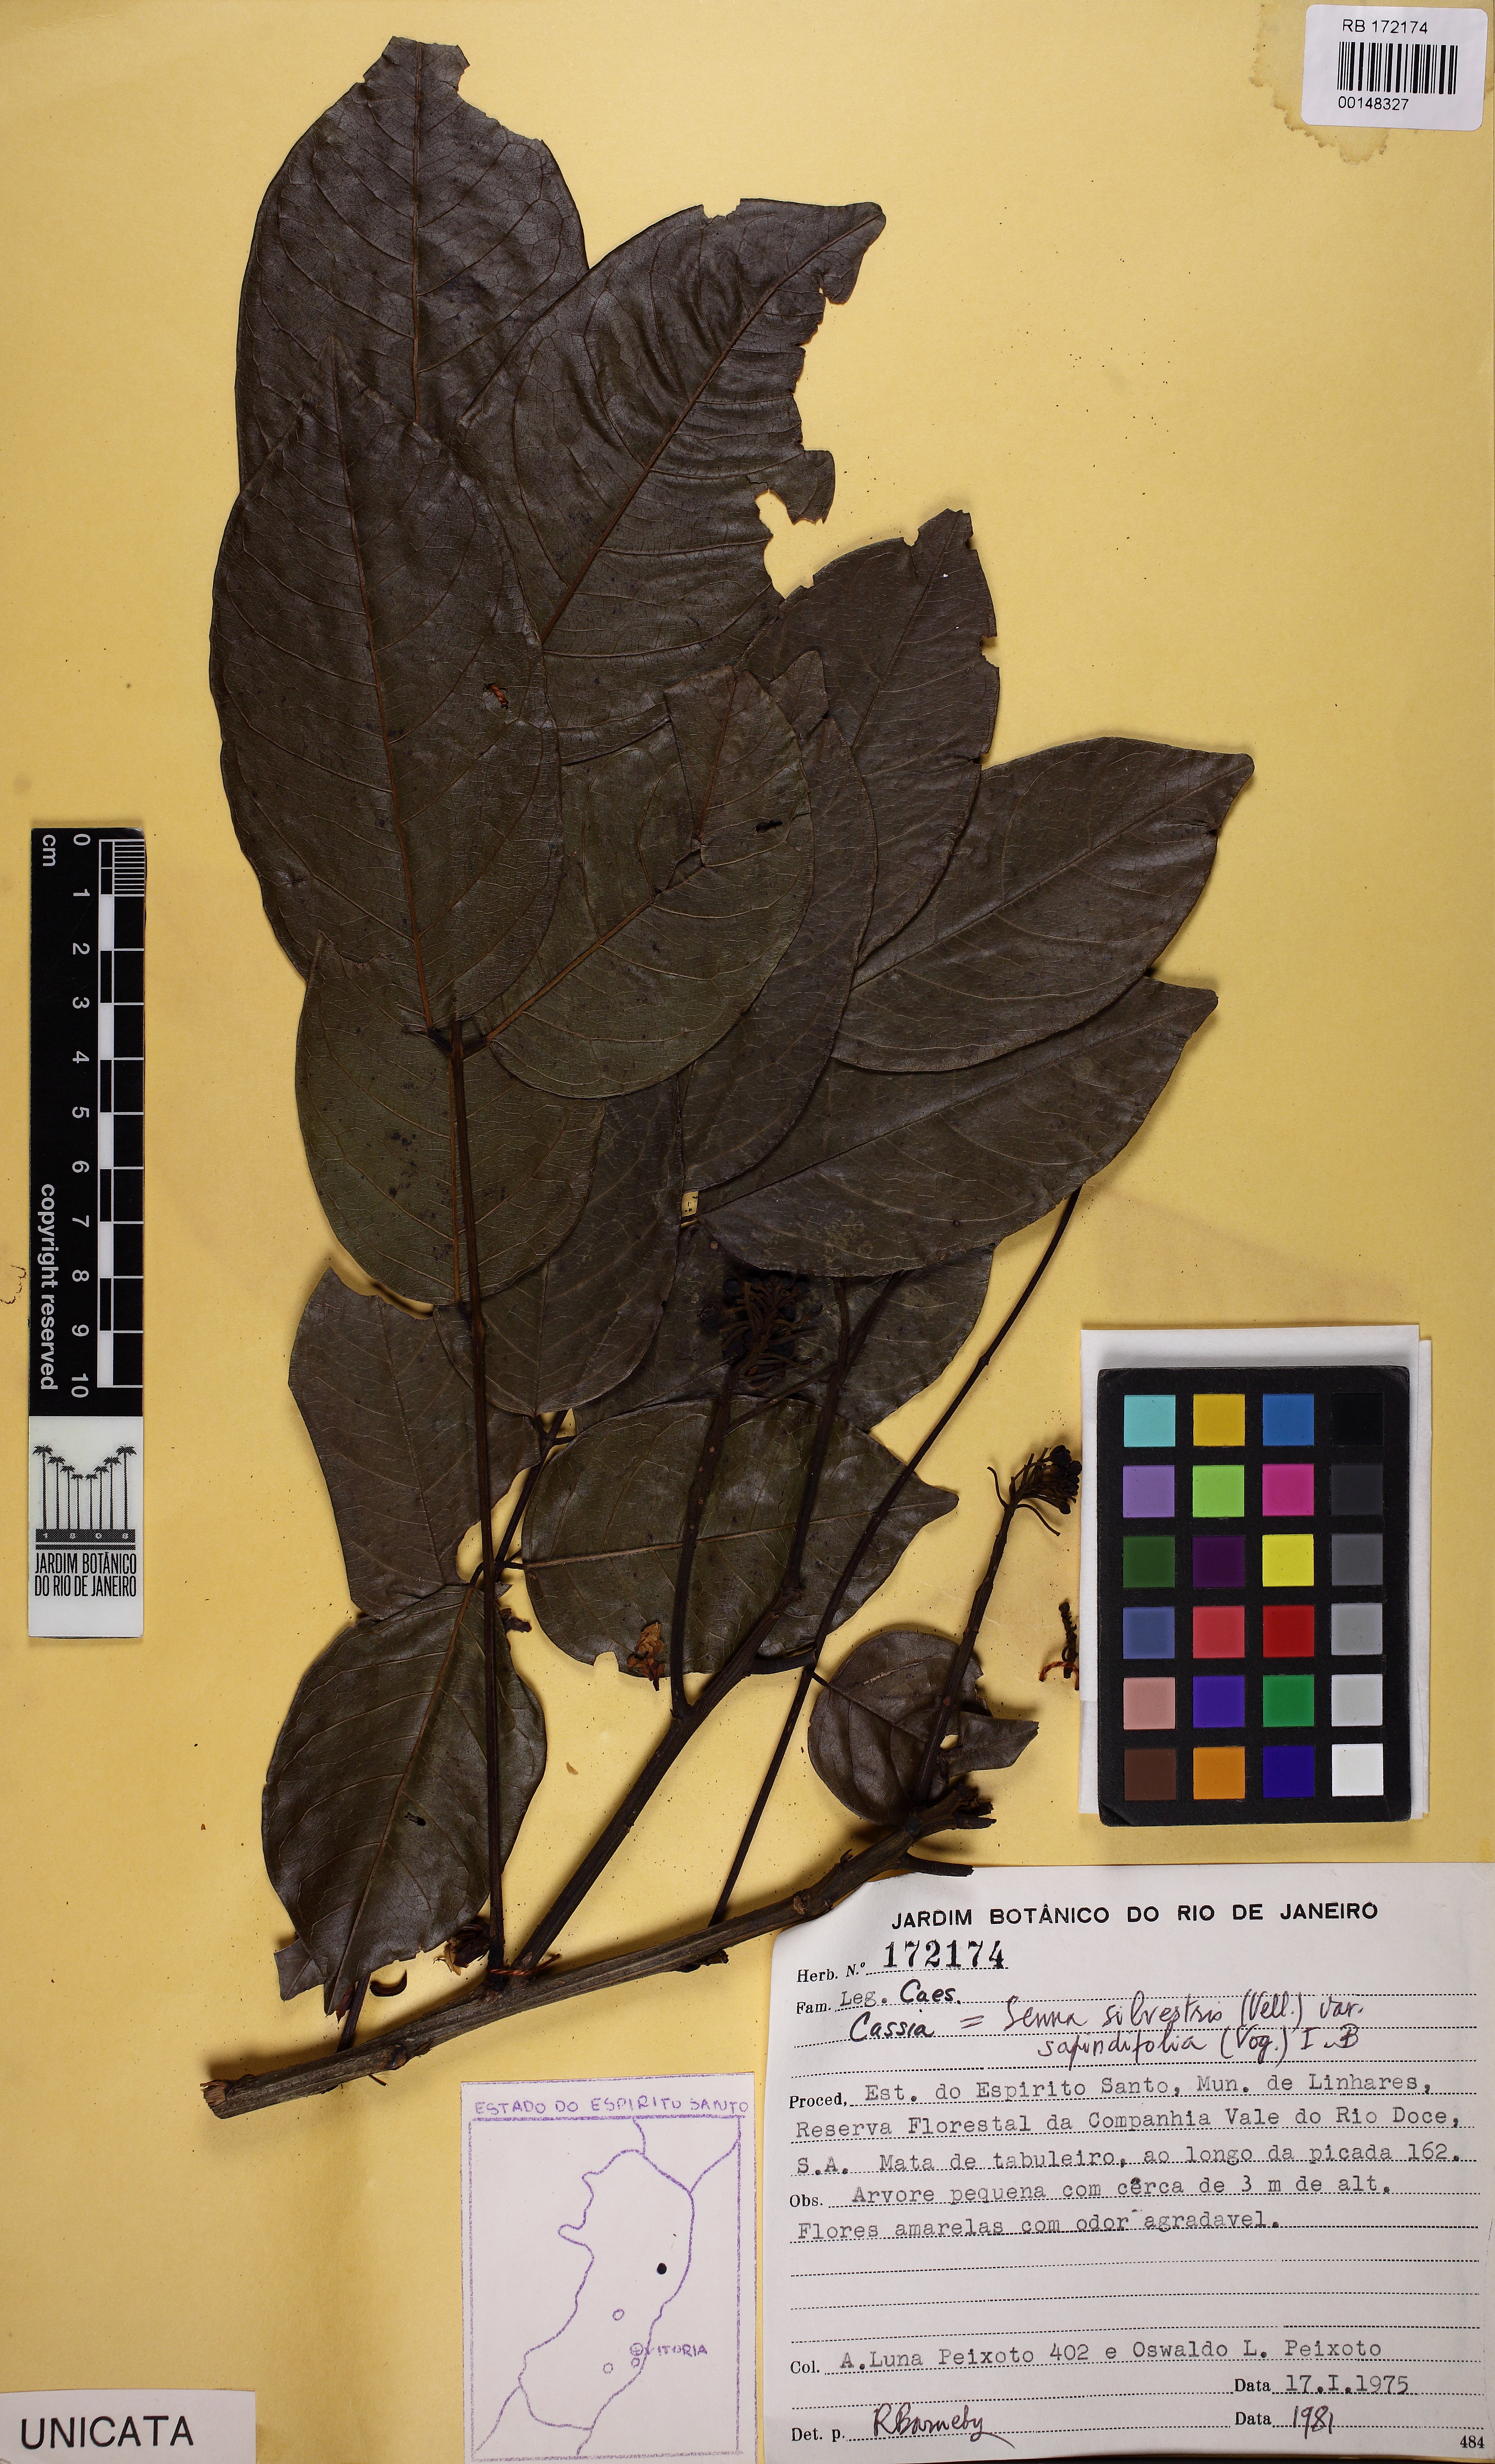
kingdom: Plantae
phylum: Tracheophyta
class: Magnoliopsida
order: Fabales
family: Fabaceae
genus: Senna
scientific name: Senna silvestris
